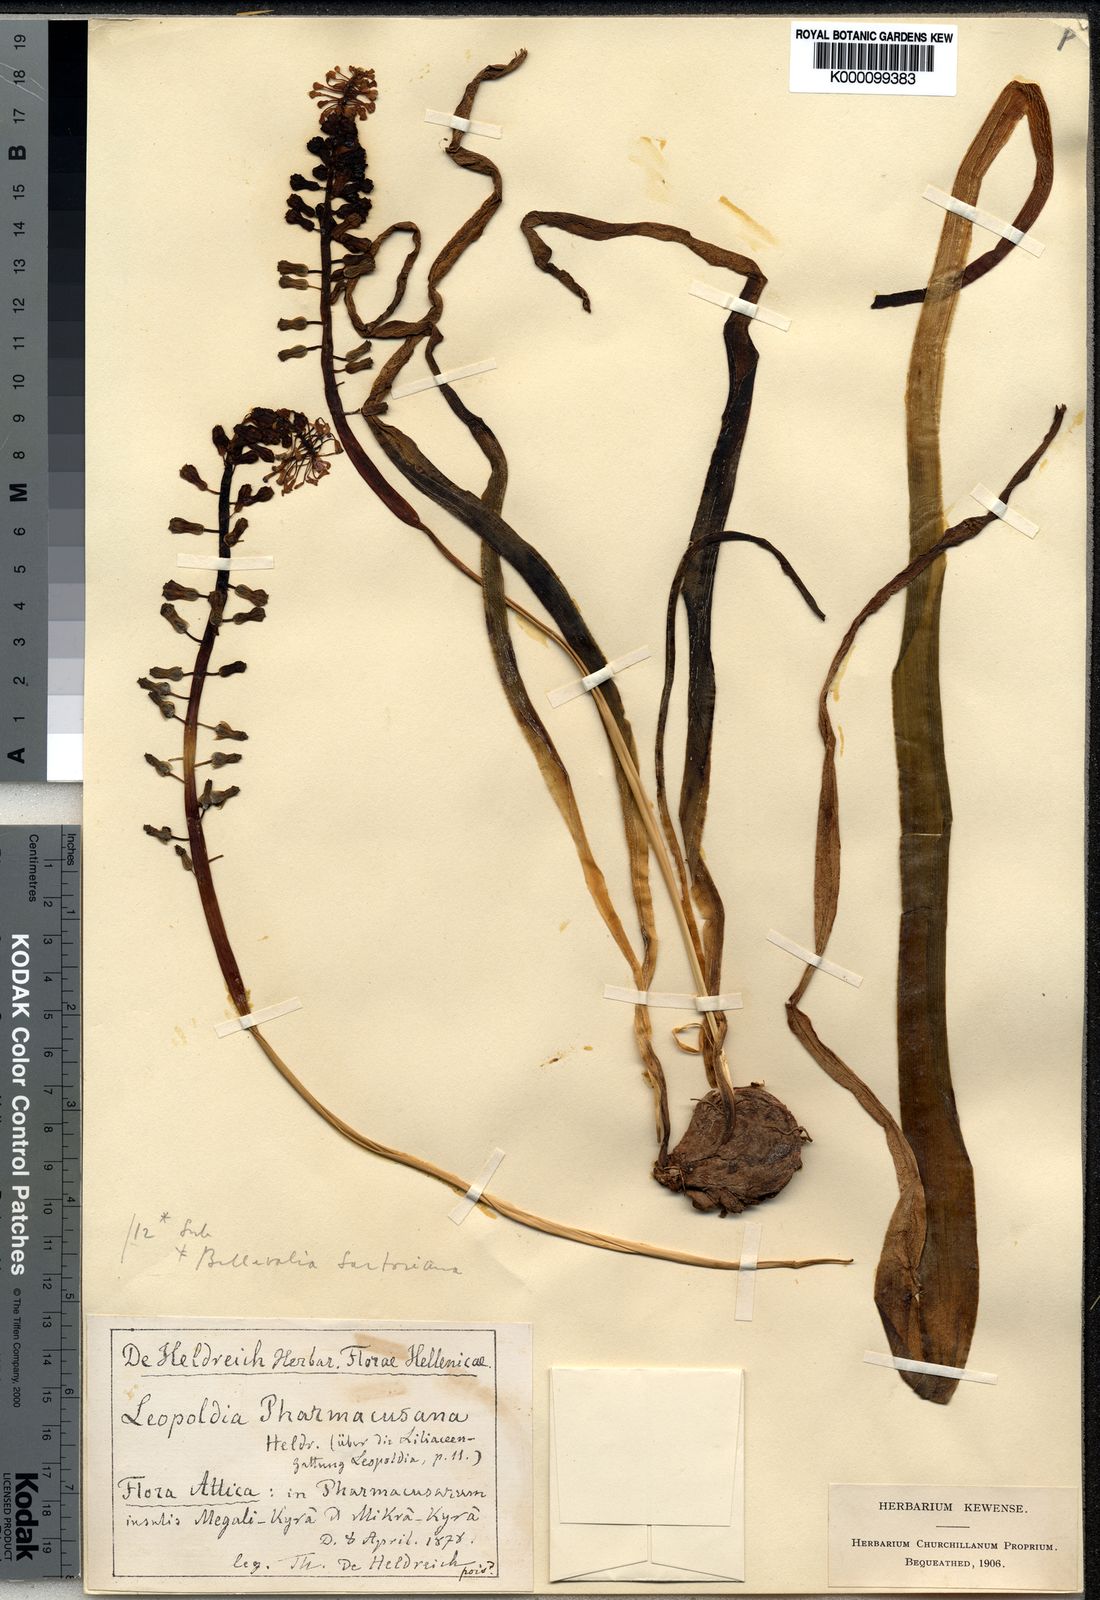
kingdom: Plantae
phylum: Tracheophyta
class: Liliopsida
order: Asparagales
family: Asparagaceae
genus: Muscari
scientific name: Muscari comosum
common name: Tassel hyacinth
